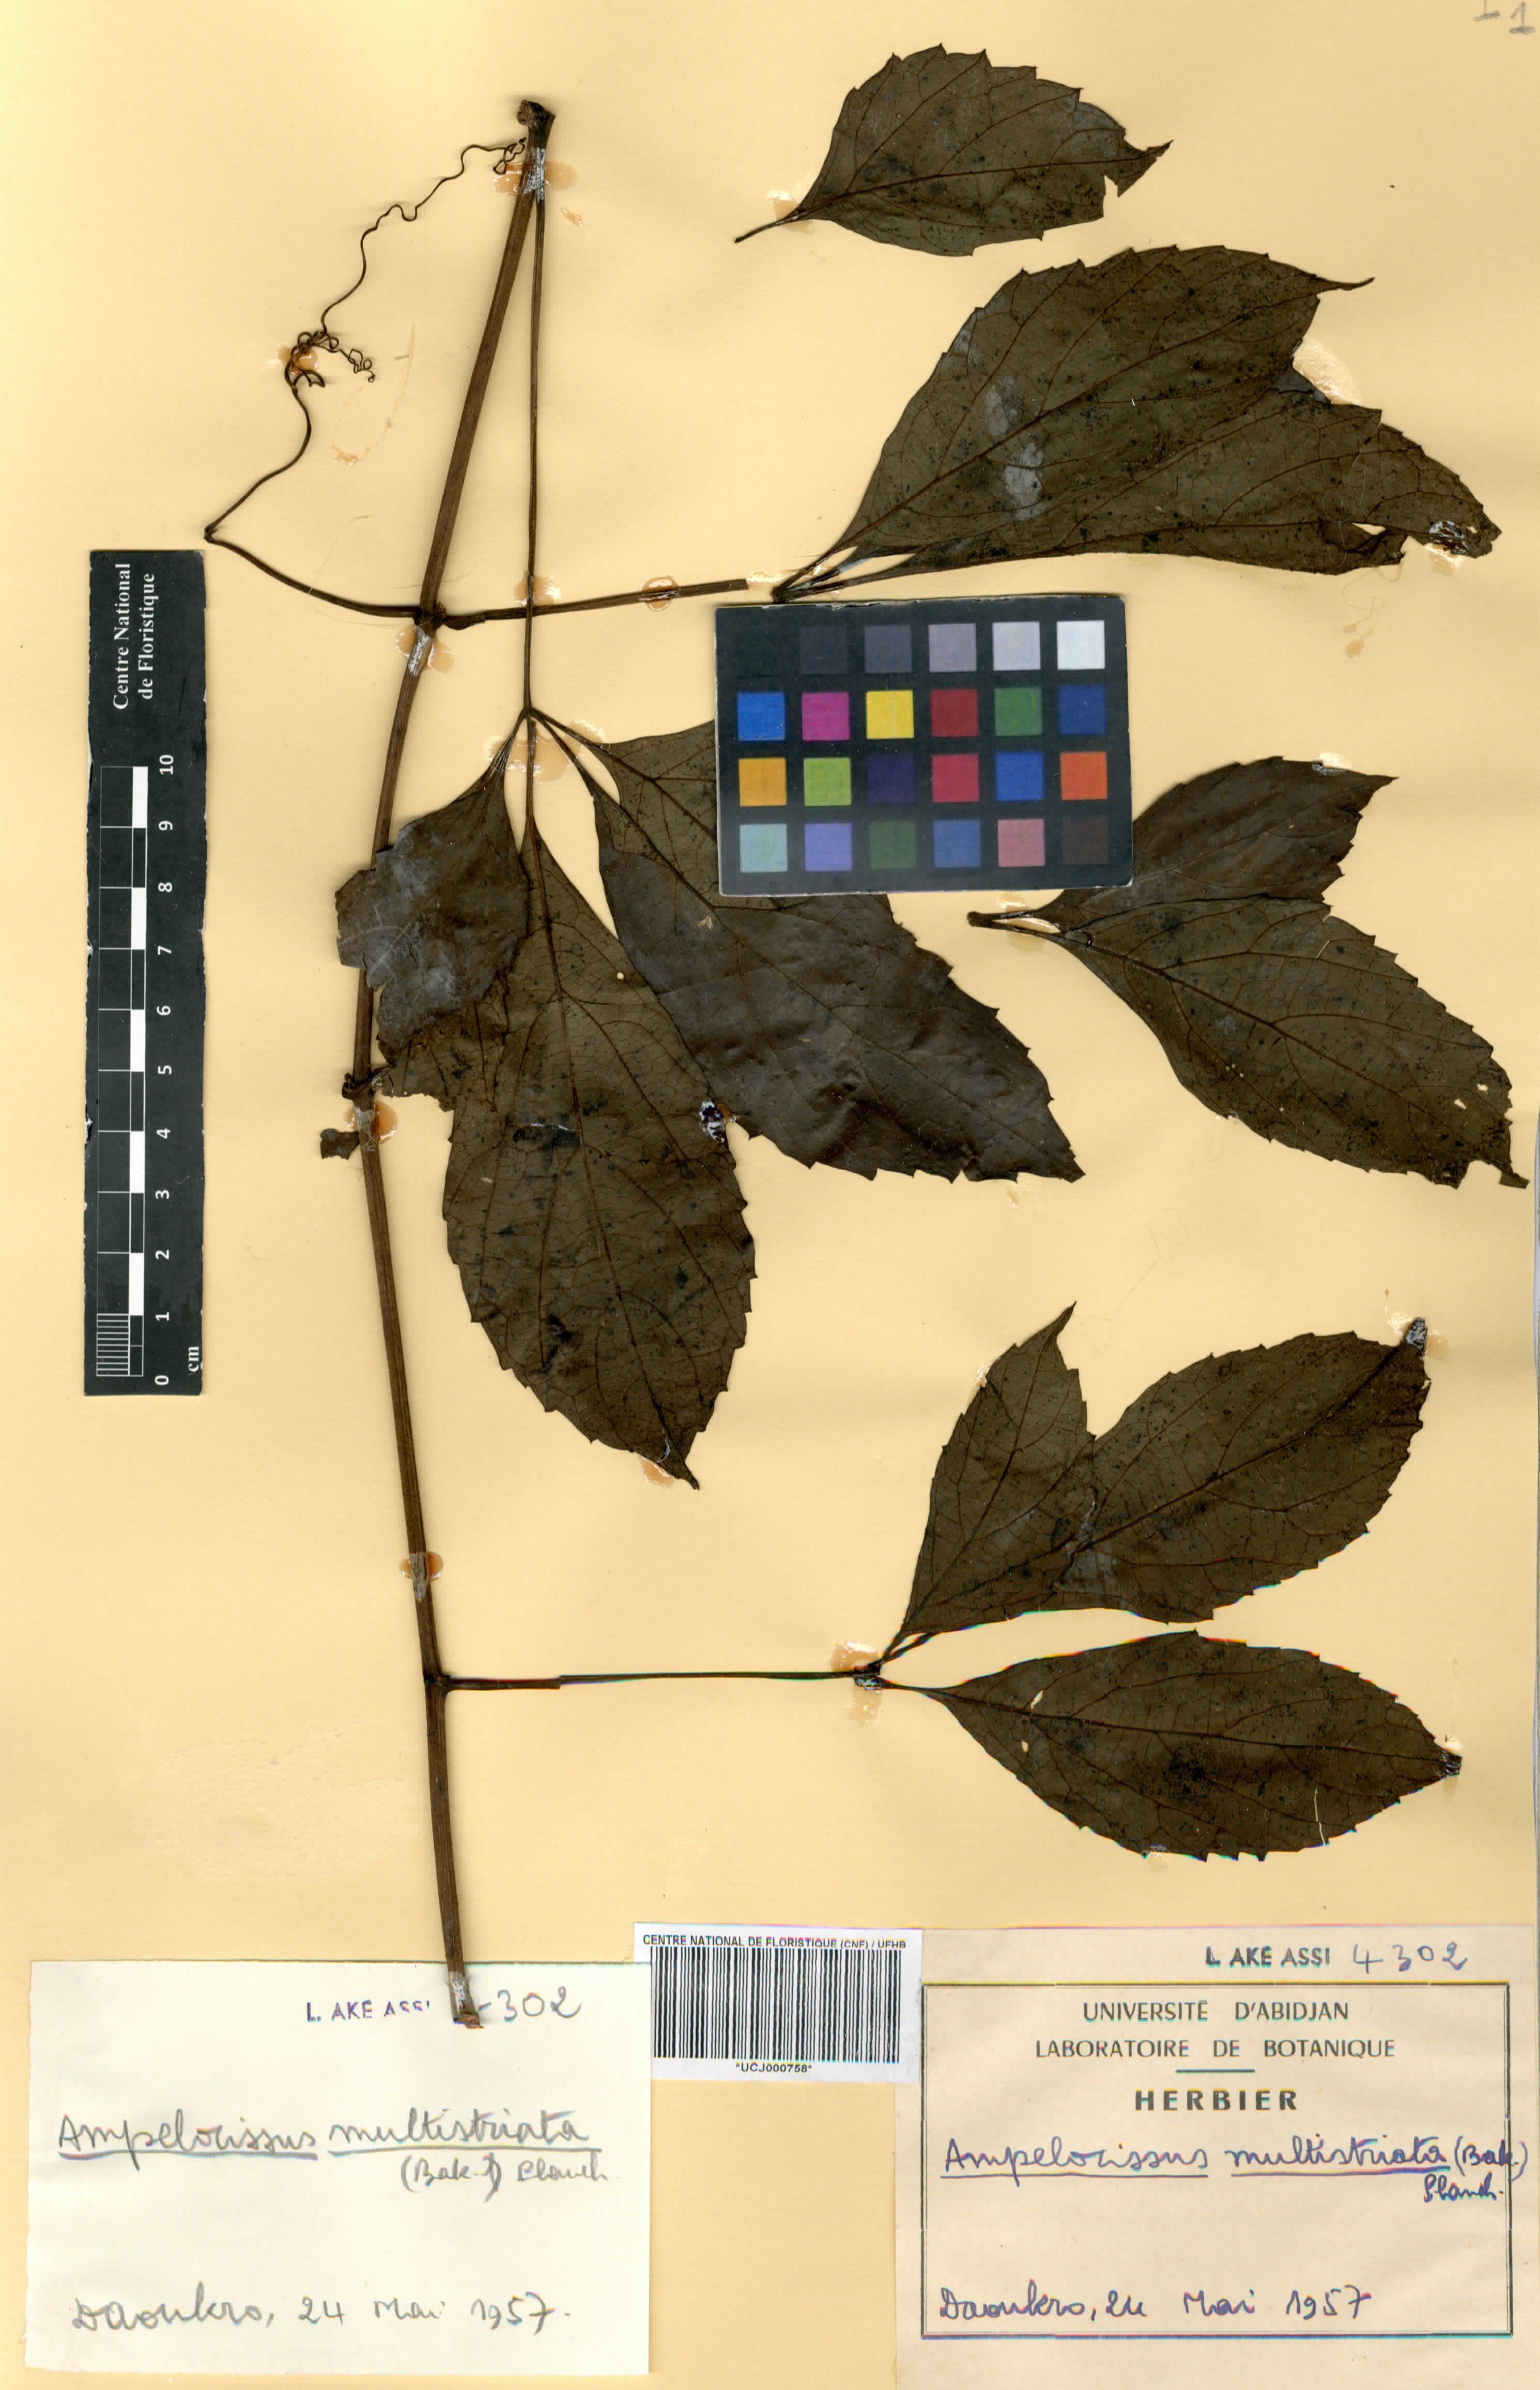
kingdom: Plantae
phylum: Tracheophyta
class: Magnoliopsida
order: Vitales
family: Vitaceae
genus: Ampelocissus
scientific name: Ampelocissus multistriata
